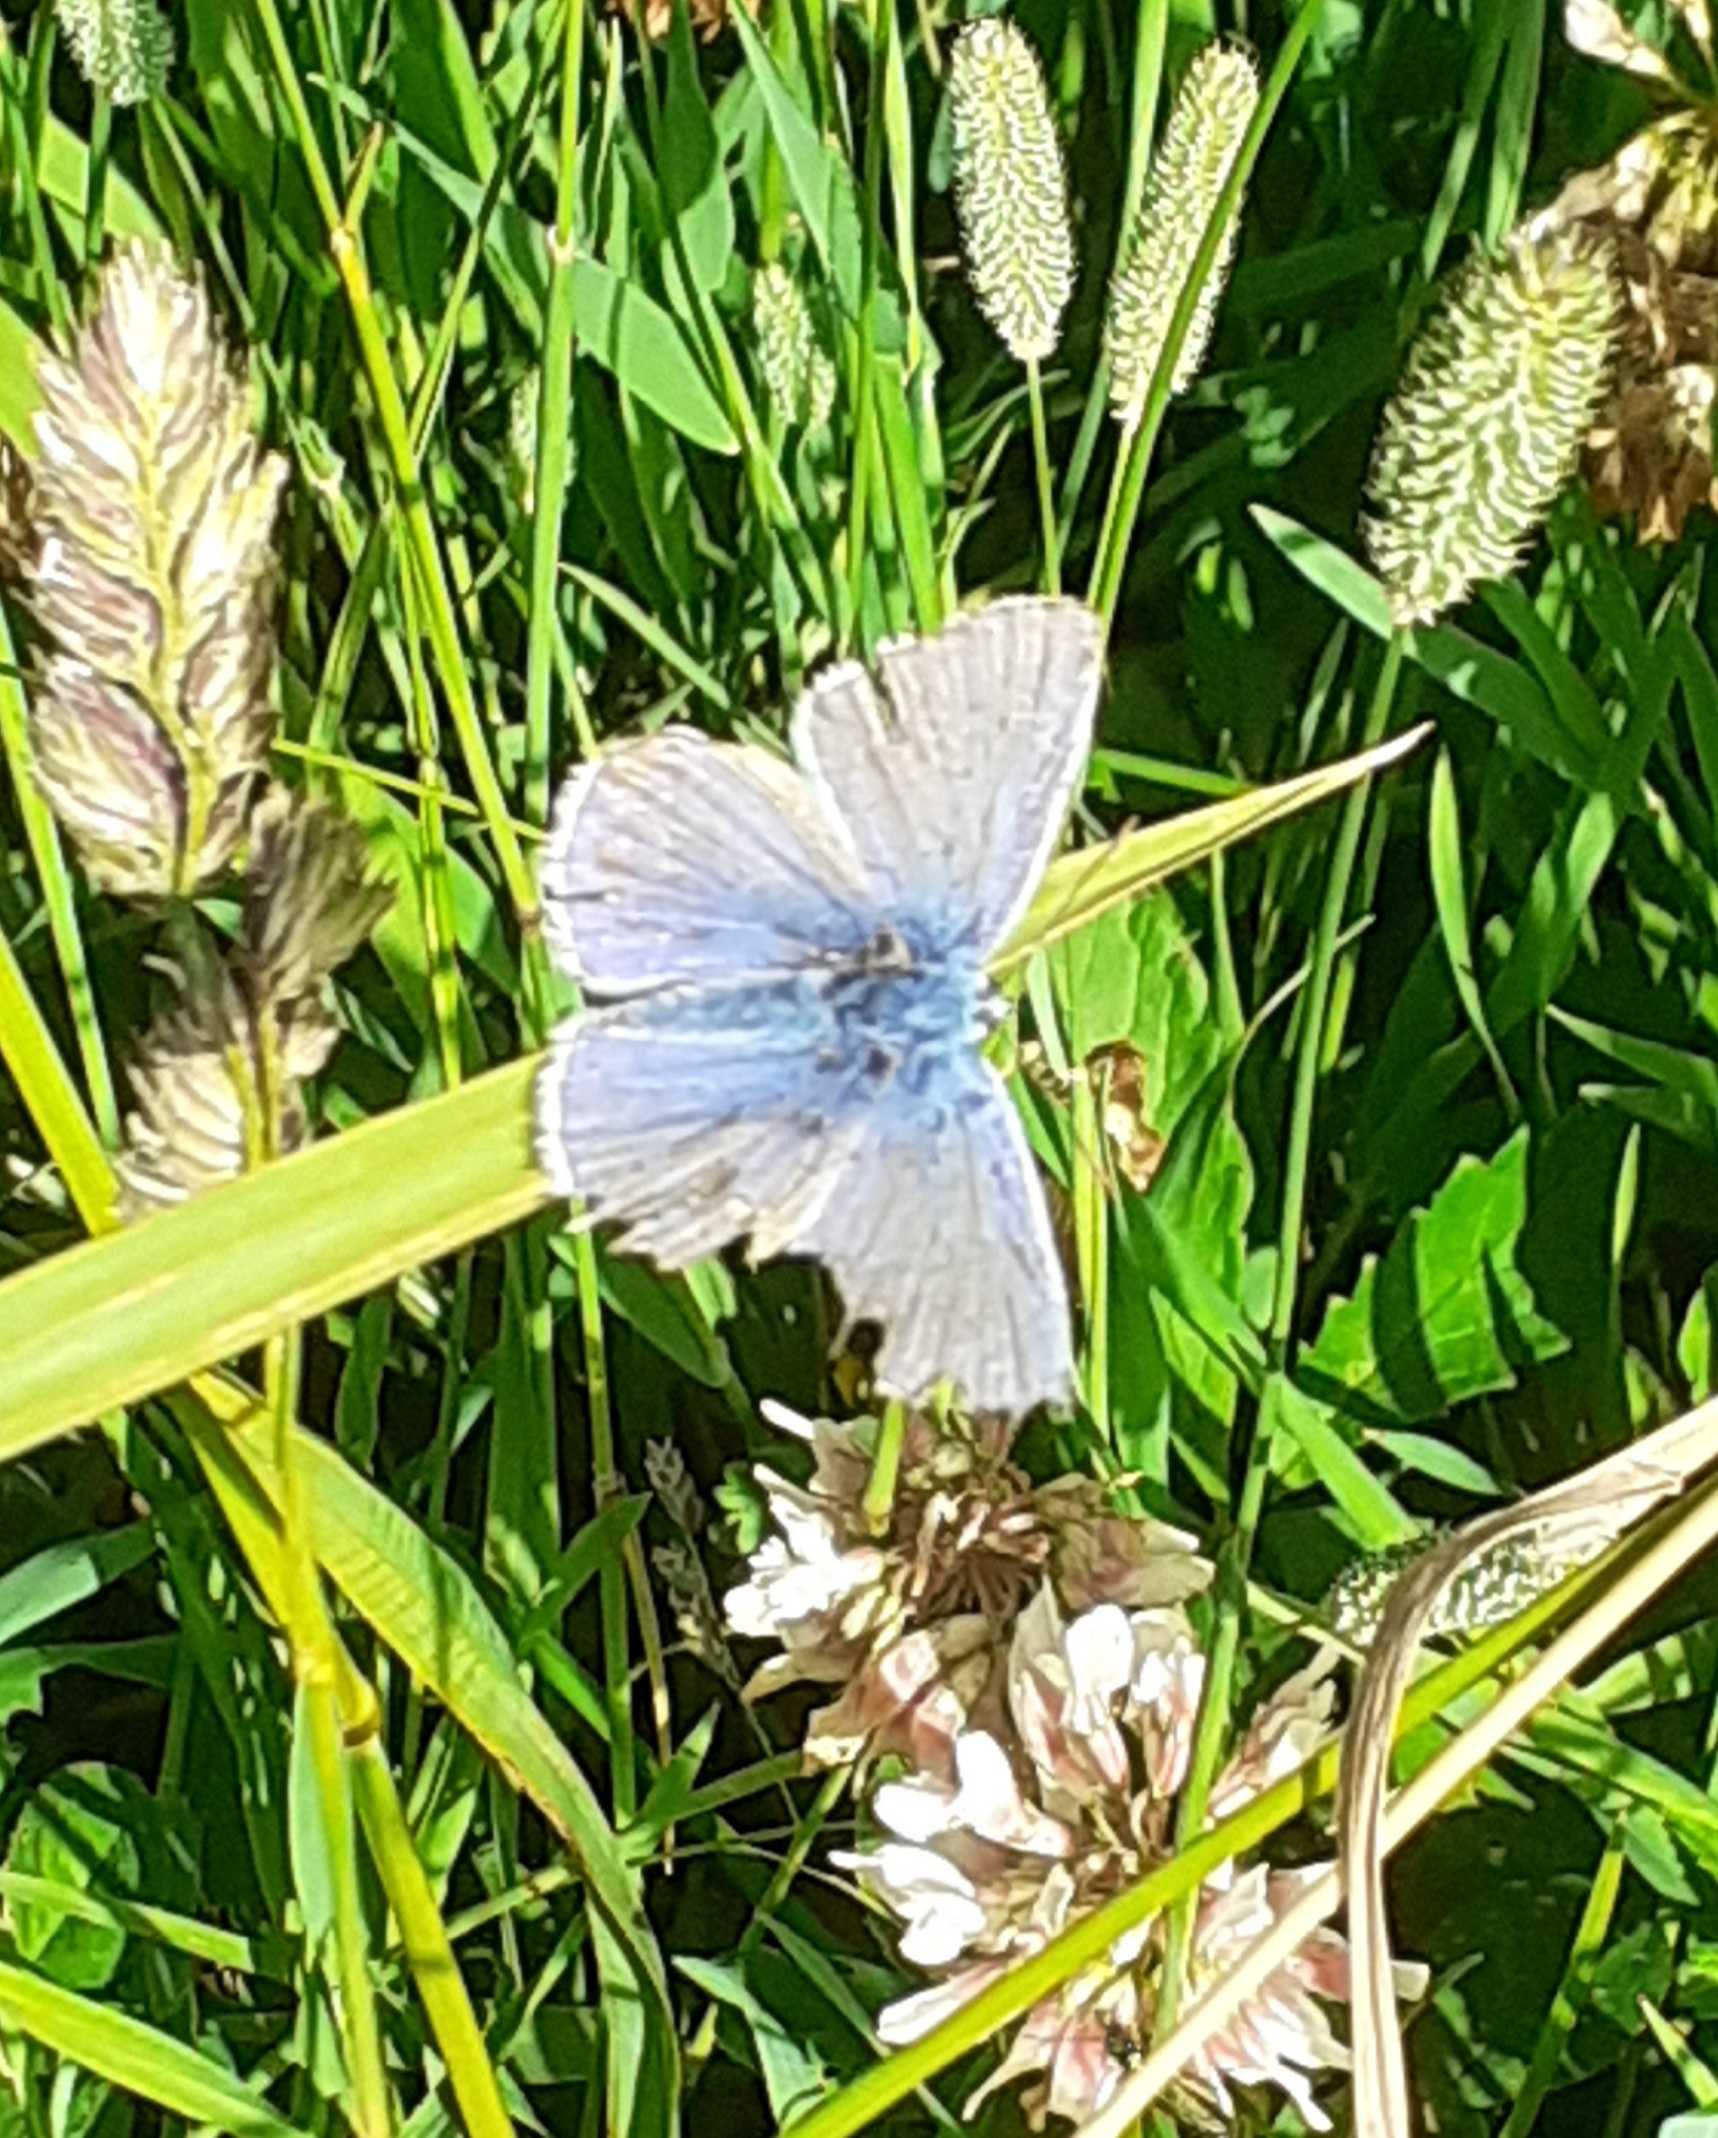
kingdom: Animalia
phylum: Arthropoda
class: Insecta
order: Lepidoptera
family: Lycaenidae
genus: Polyommatus
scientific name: Polyommatus icarus
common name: Almindelig blåfugl
